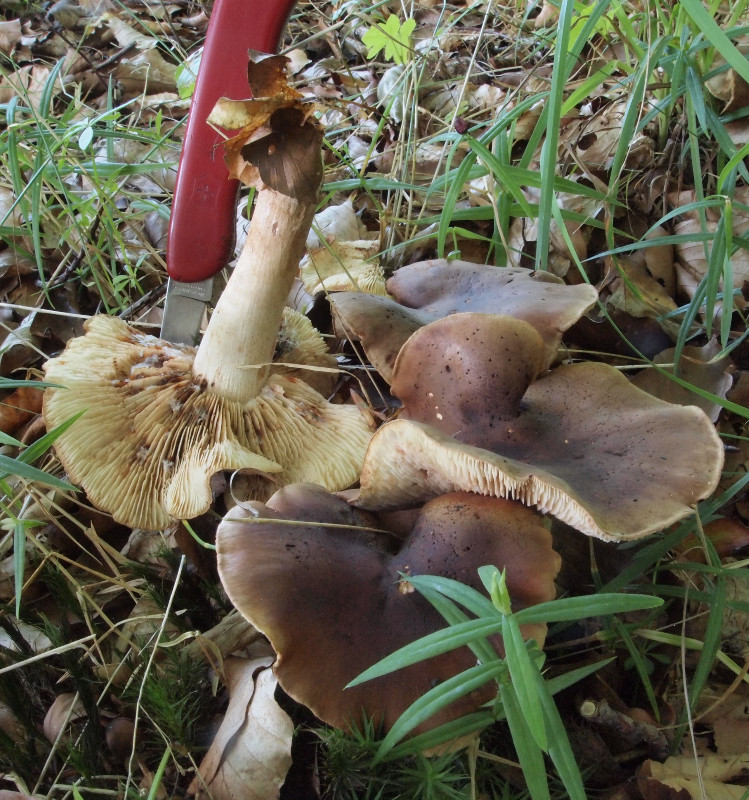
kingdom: Fungi
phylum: Basidiomycota
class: Agaricomycetes
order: Agaricales
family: Tricholomataceae
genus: Tricholoma
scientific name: Tricholoma ustale
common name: sveden ridderhat
